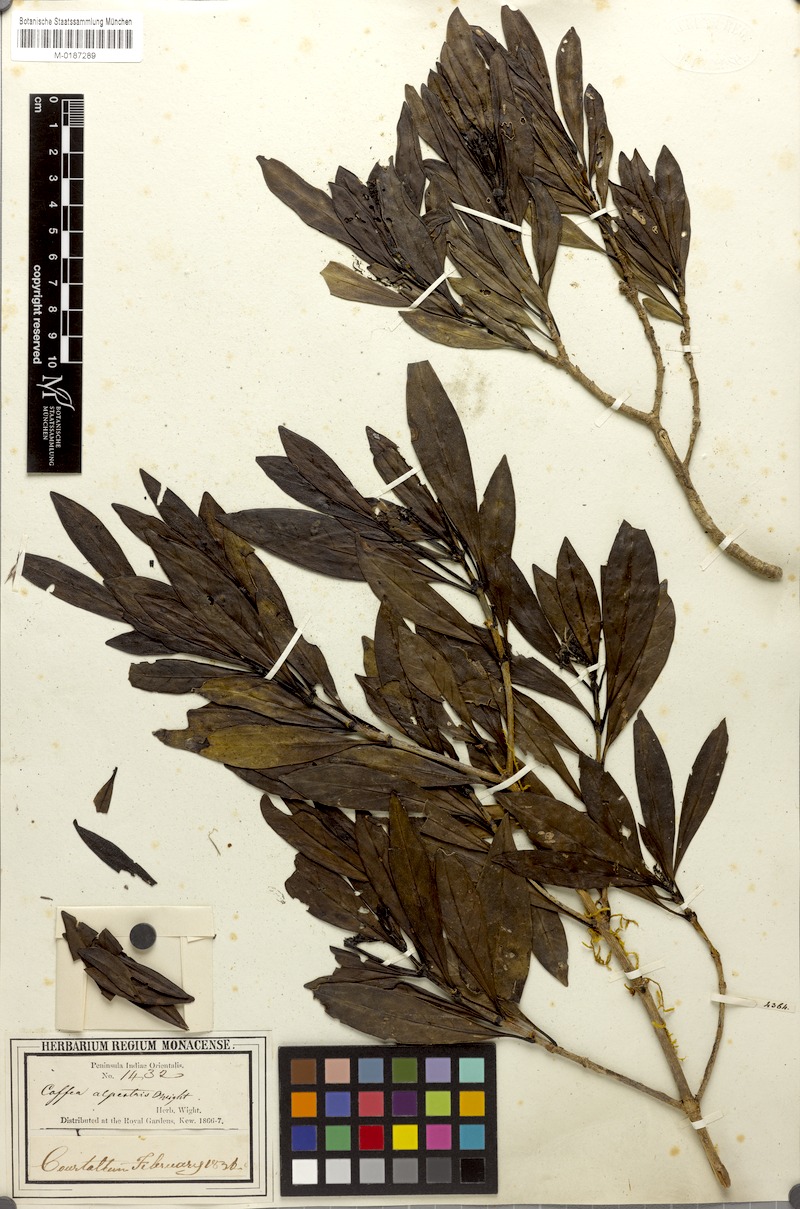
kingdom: Plantae
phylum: Tracheophyta
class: Magnoliopsida
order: Gentianales
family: Rubiaceae
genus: Tarenna
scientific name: Tarenna alpestris
